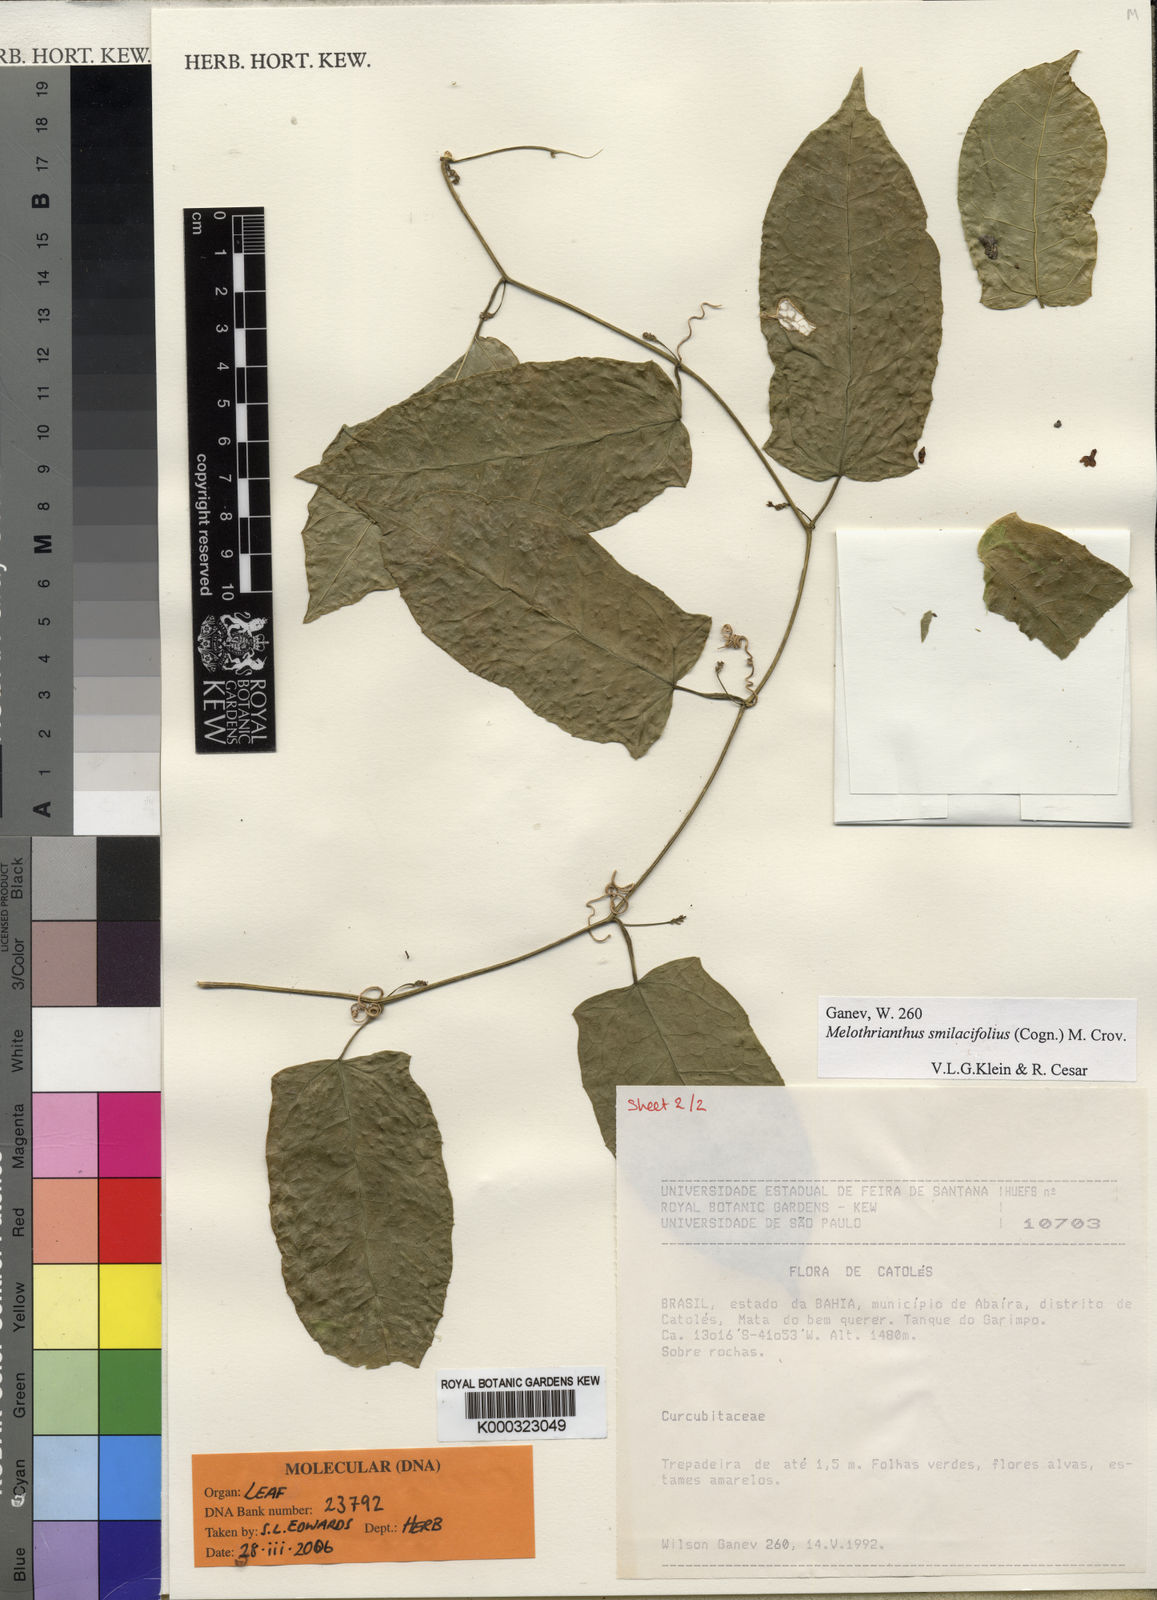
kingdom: Plantae
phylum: Tracheophyta
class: Magnoliopsida
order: Cucurbitales
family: Cucurbitaceae
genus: Apodanthera
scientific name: Apodanthera smilacifolia
